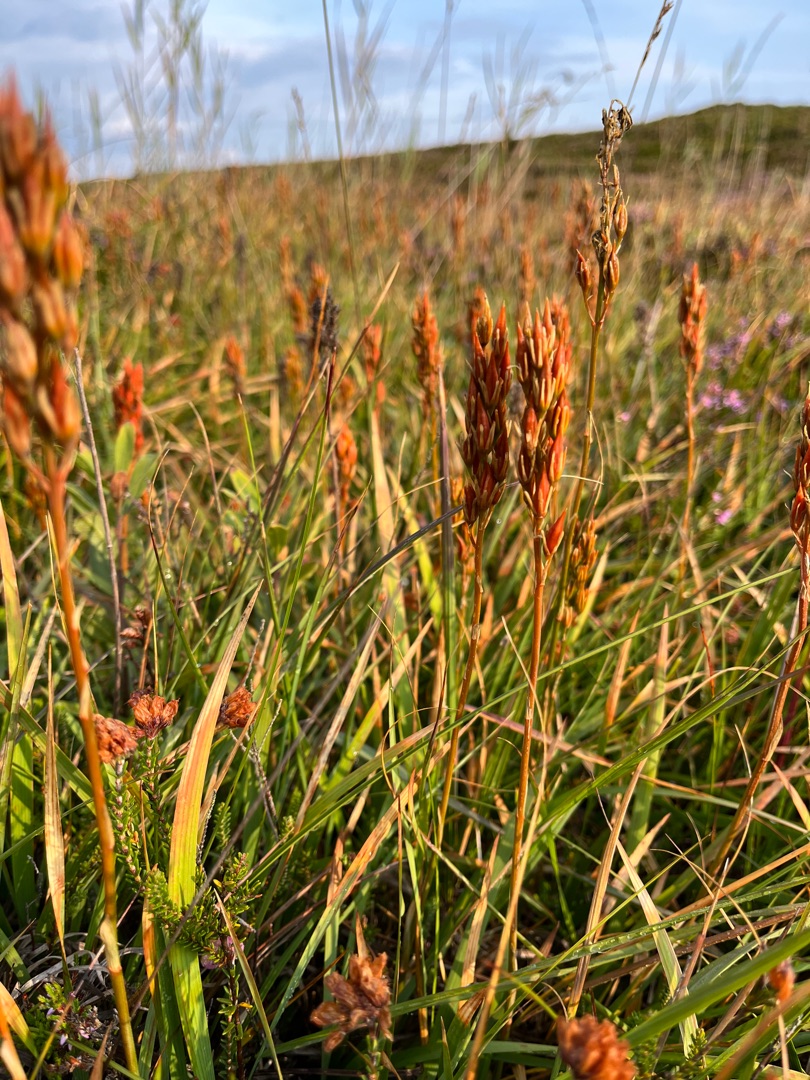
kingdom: Plantae
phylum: Tracheophyta
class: Liliopsida
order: Dioscoreales
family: Nartheciaceae
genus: Narthecium
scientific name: Narthecium ossifragum
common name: Benbræk
